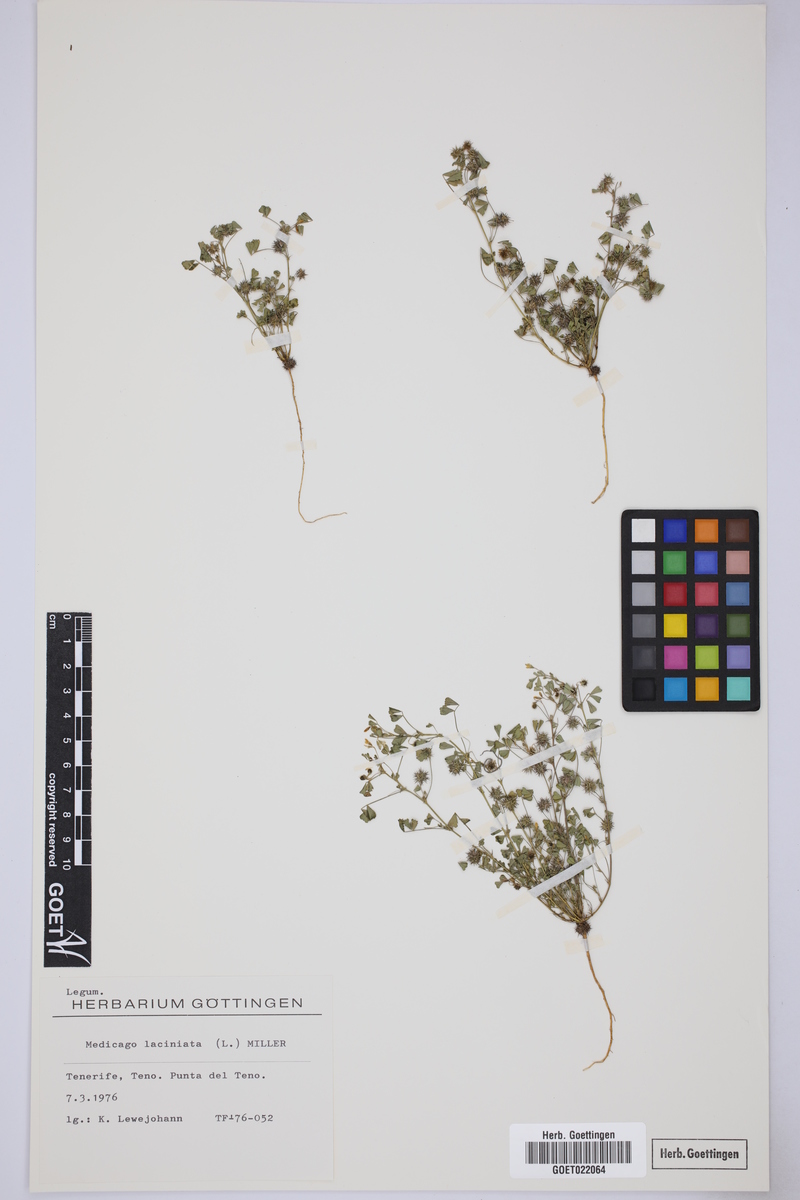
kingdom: Plantae
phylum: Tracheophyta
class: Magnoliopsida
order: Fabales
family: Fabaceae
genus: Medicago
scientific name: Medicago laciniata
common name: Tattered medick
